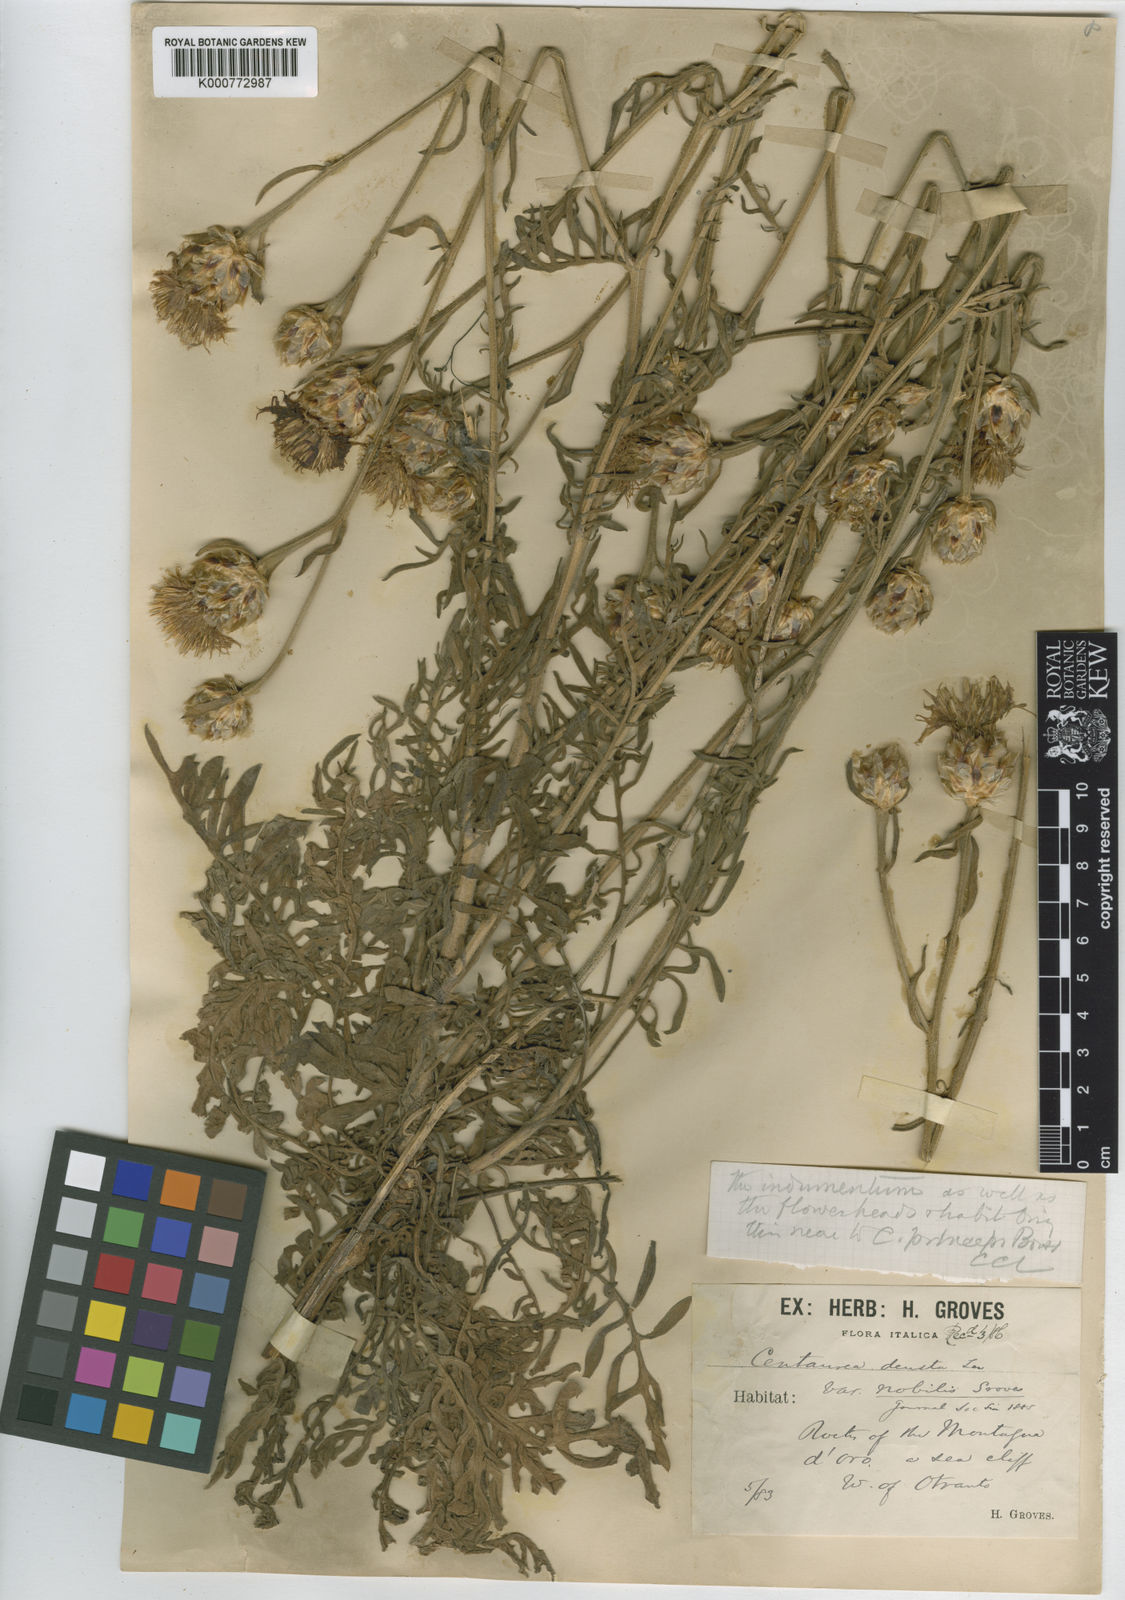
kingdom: Plantae
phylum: Tracheophyta
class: Magnoliopsida
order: Brassicales
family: Brassicaceae
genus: Odontarrhena
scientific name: Odontarrhena bertolonii
